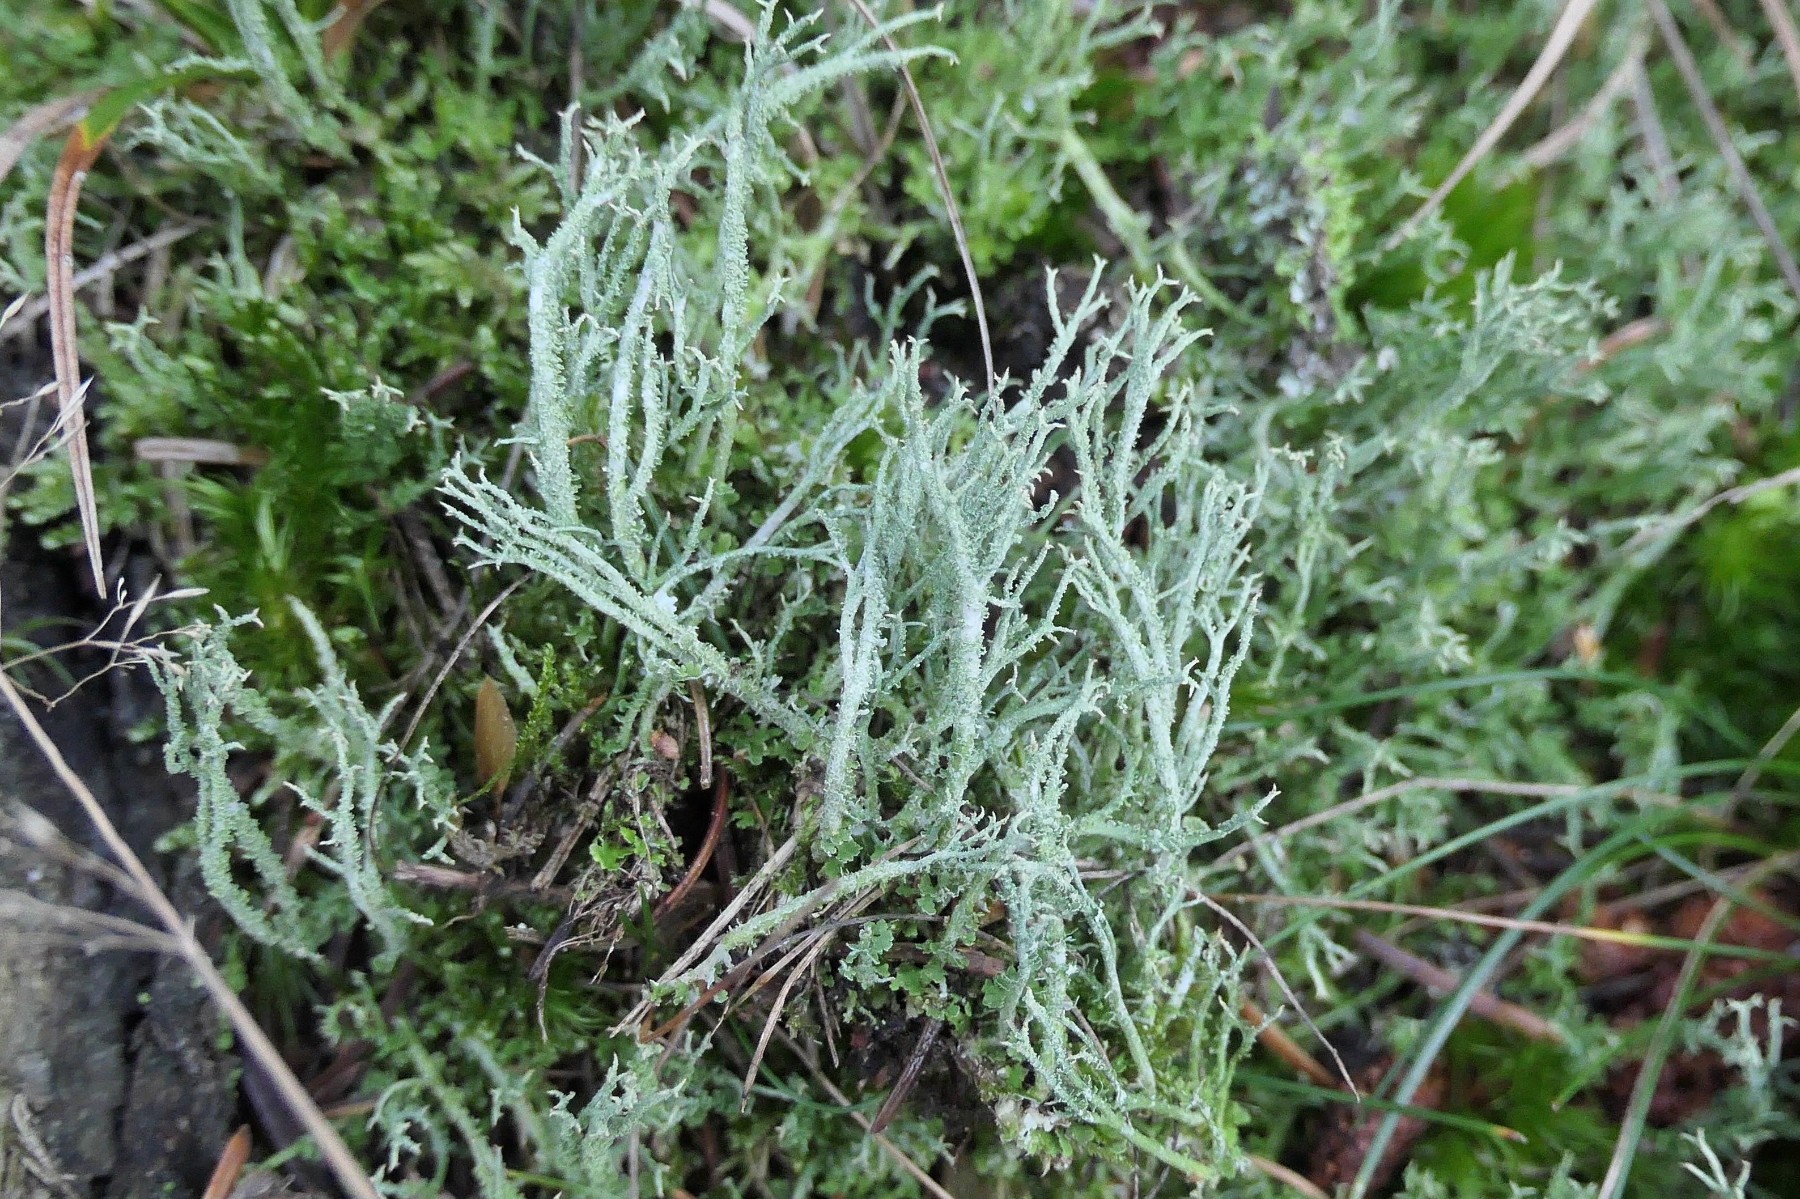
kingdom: Fungi
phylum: Ascomycota
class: Lecanoromycetes
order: Lecanorales
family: Cladoniaceae
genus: Cladonia
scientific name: Cladonia scabriuscula
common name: ru bægerlav
